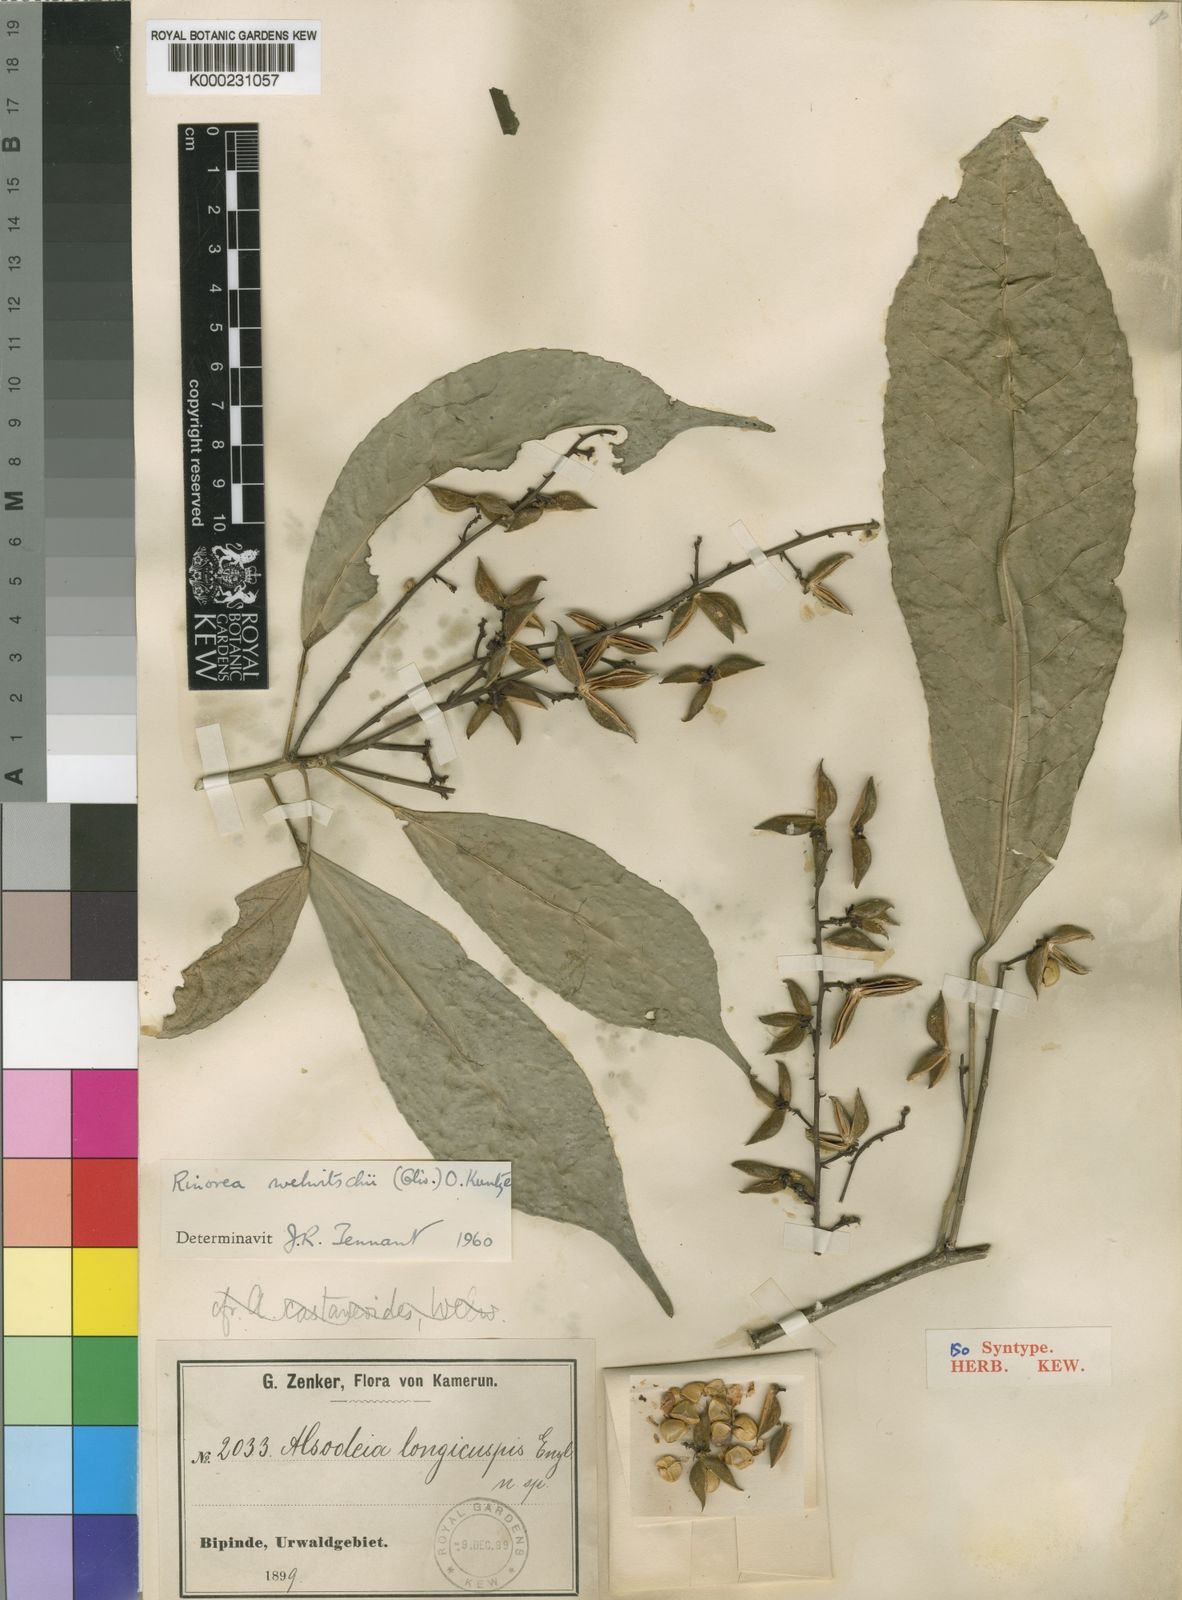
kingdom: Plantae
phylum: Tracheophyta
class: Magnoliopsida
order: Malpighiales
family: Violaceae
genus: Rinorea
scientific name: Rinorea welwitschii
